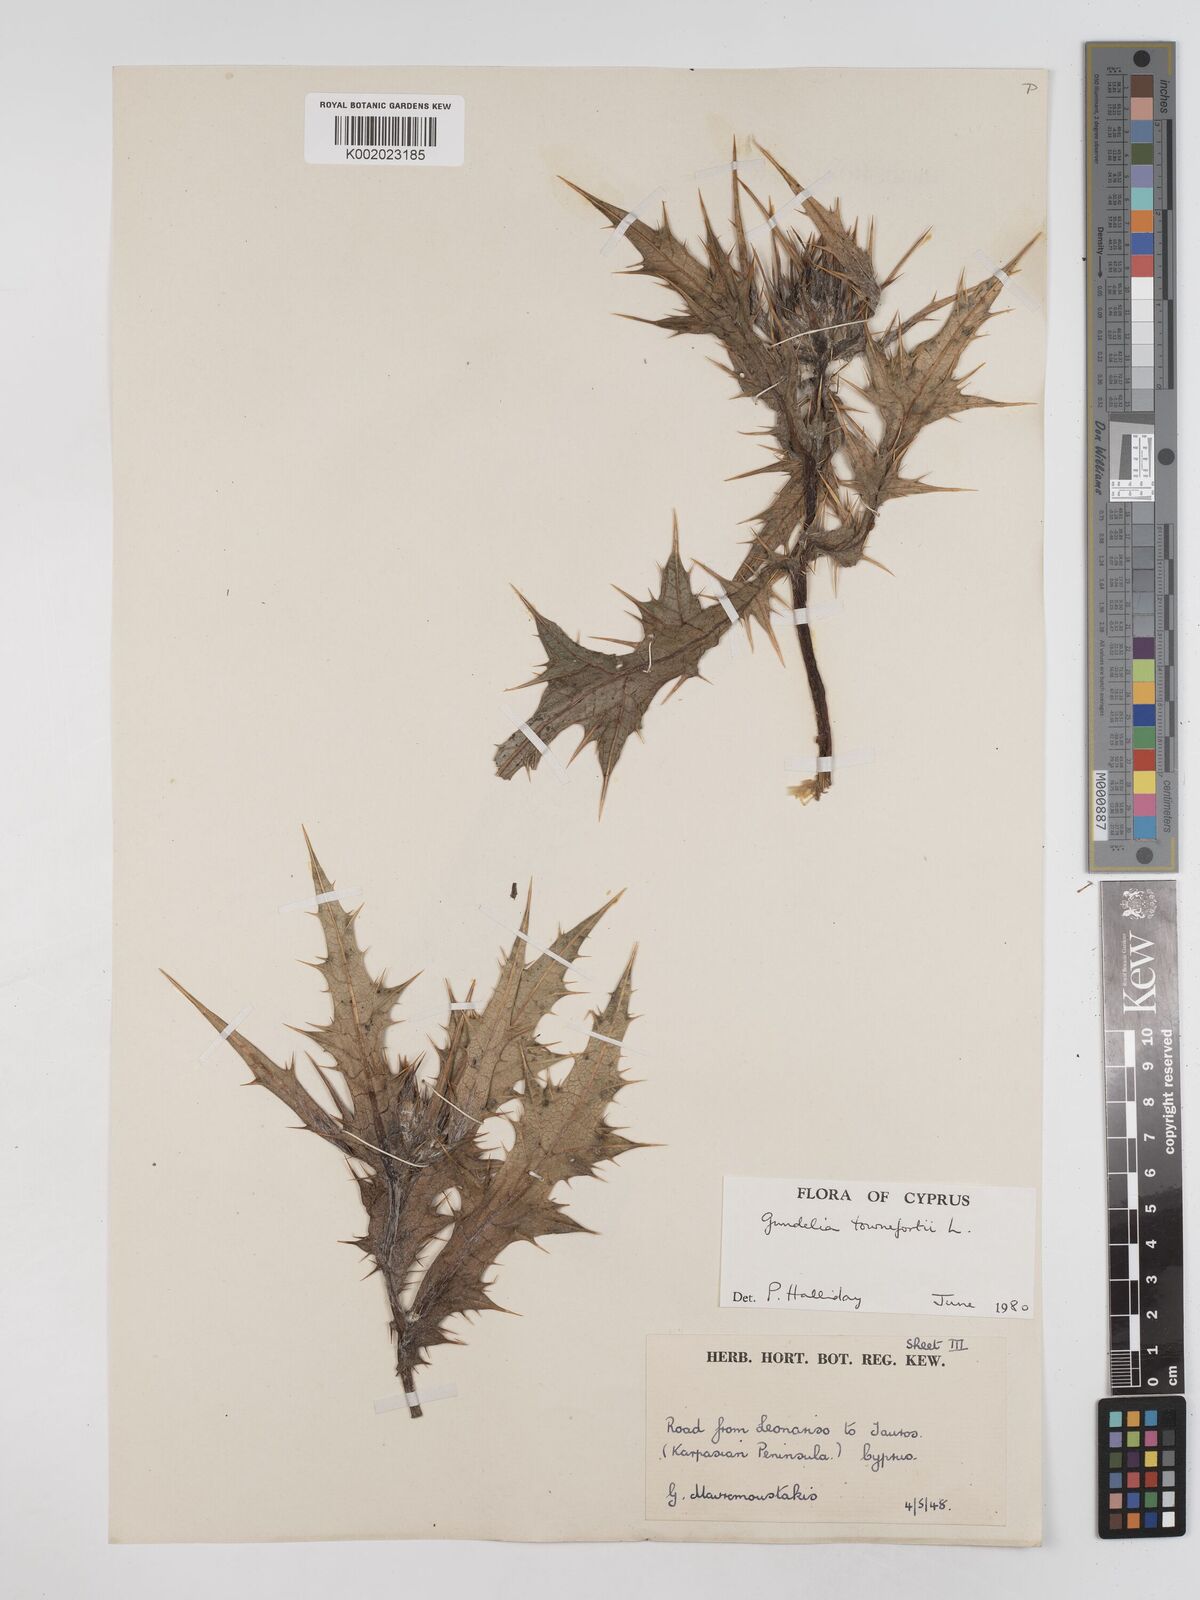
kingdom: Plantae
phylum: Tracheophyta
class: Magnoliopsida
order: Asterales
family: Asteraceae
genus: Gundelia
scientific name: Gundelia tournefortii
